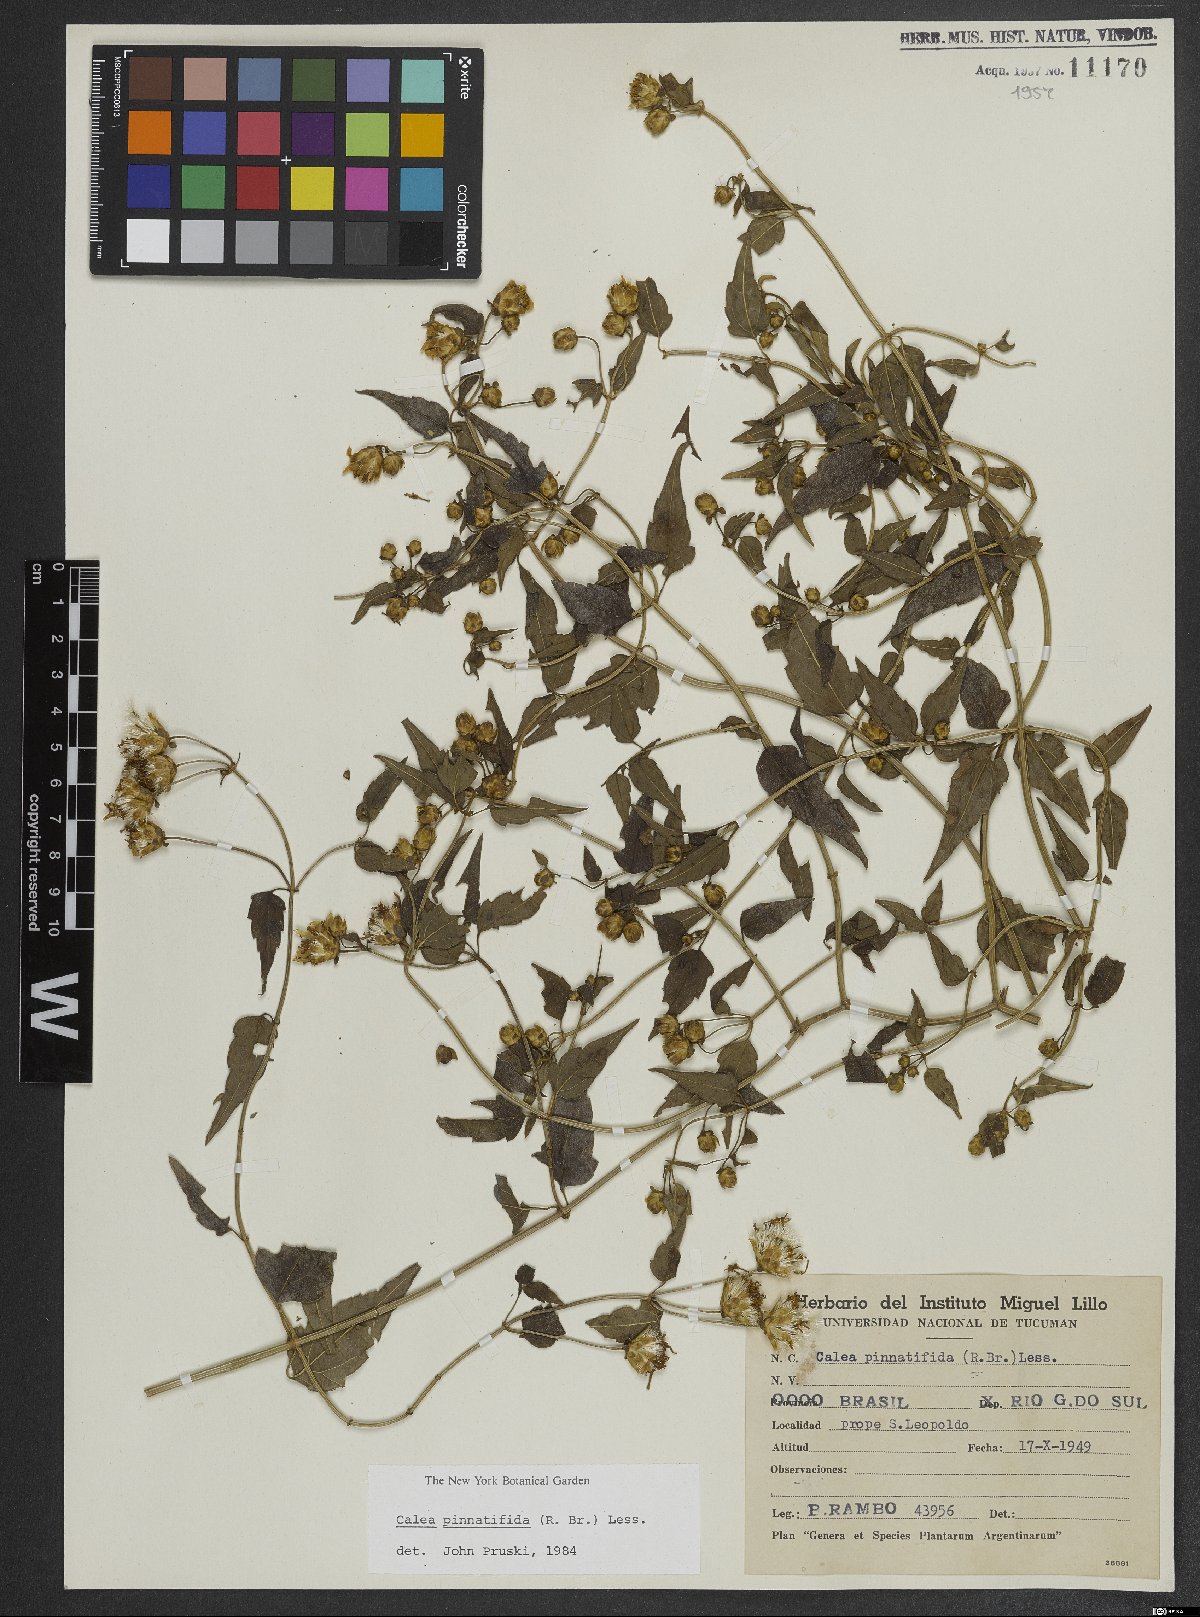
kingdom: Plantae
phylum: Tracheophyta
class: Magnoliopsida
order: Asterales
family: Asteraceae
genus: Calea
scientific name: Calea pinnatifida
